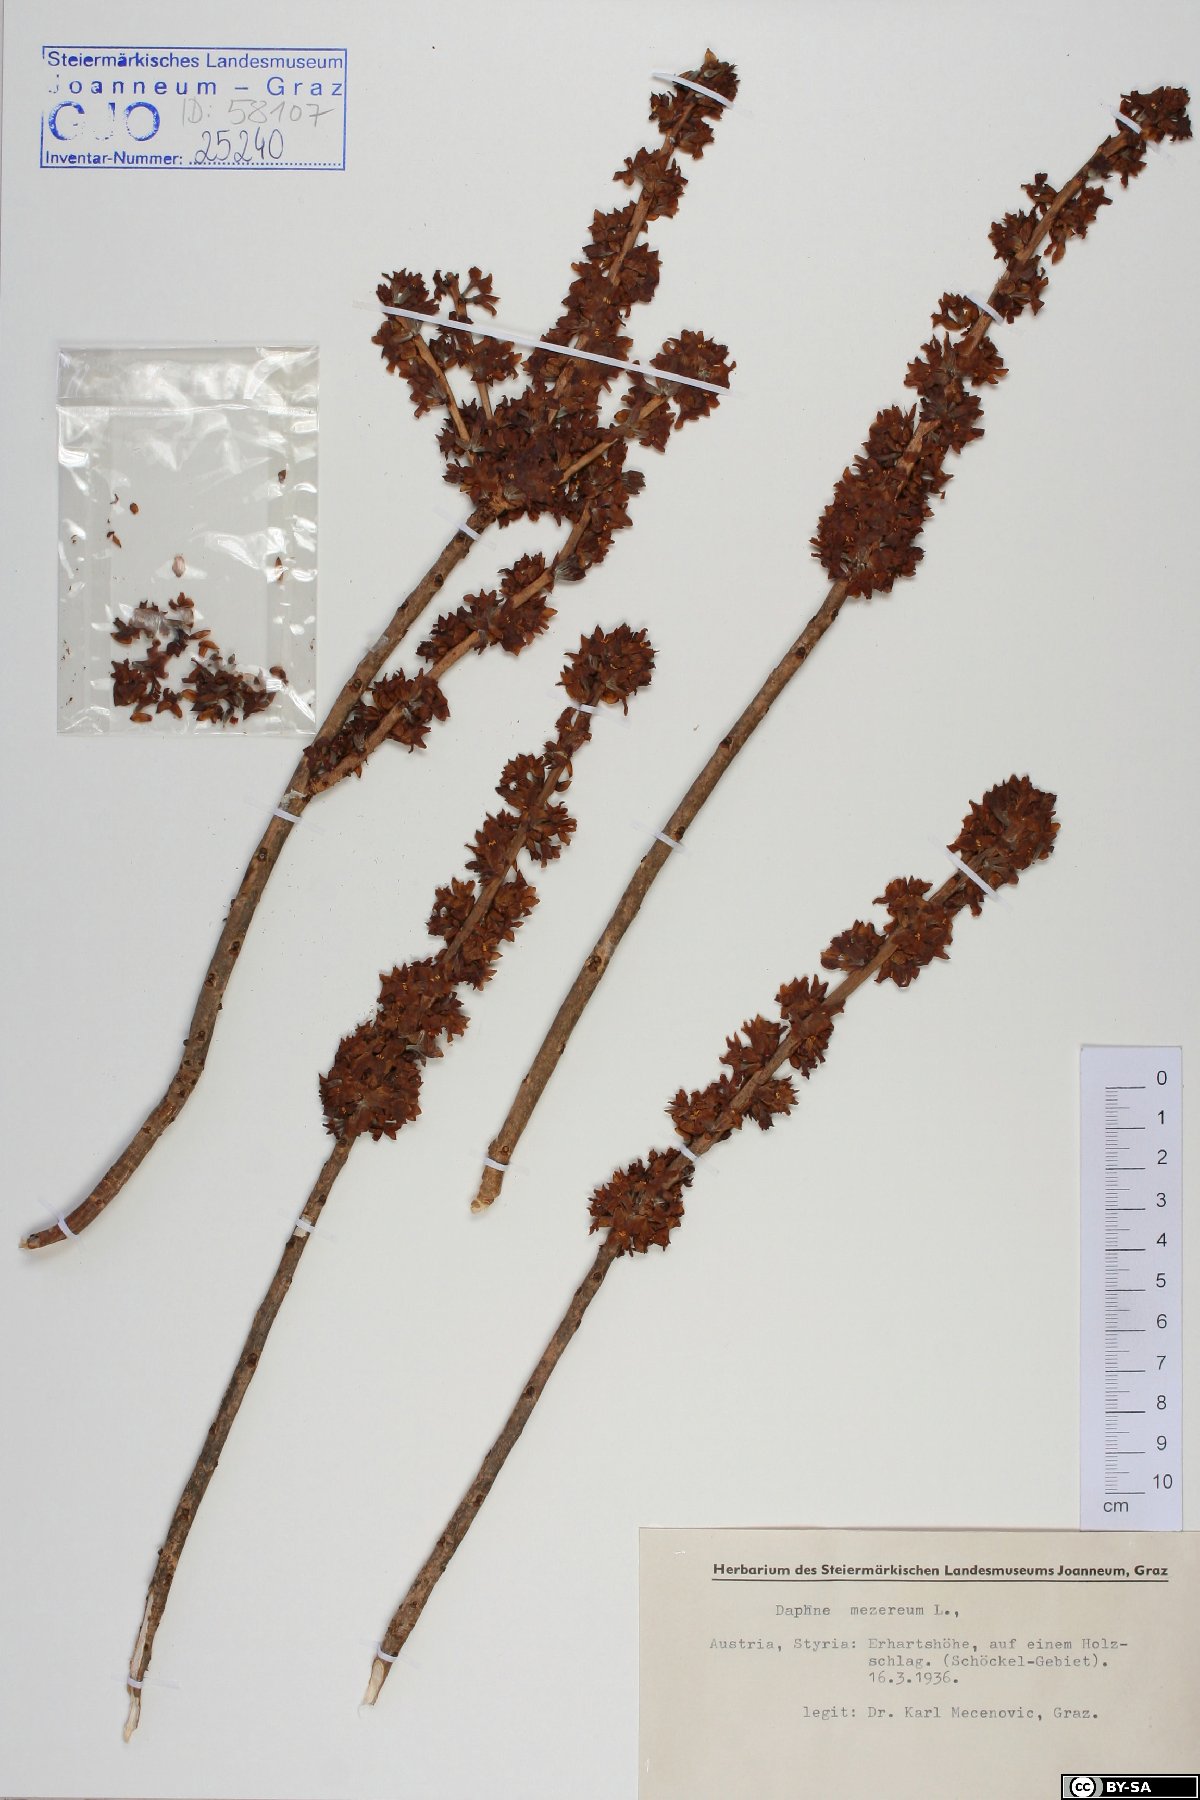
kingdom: Plantae
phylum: Tracheophyta
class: Magnoliopsida
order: Malvales
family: Thymelaeaceae
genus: Daphne
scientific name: Daphne mezereum
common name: Mezereon
